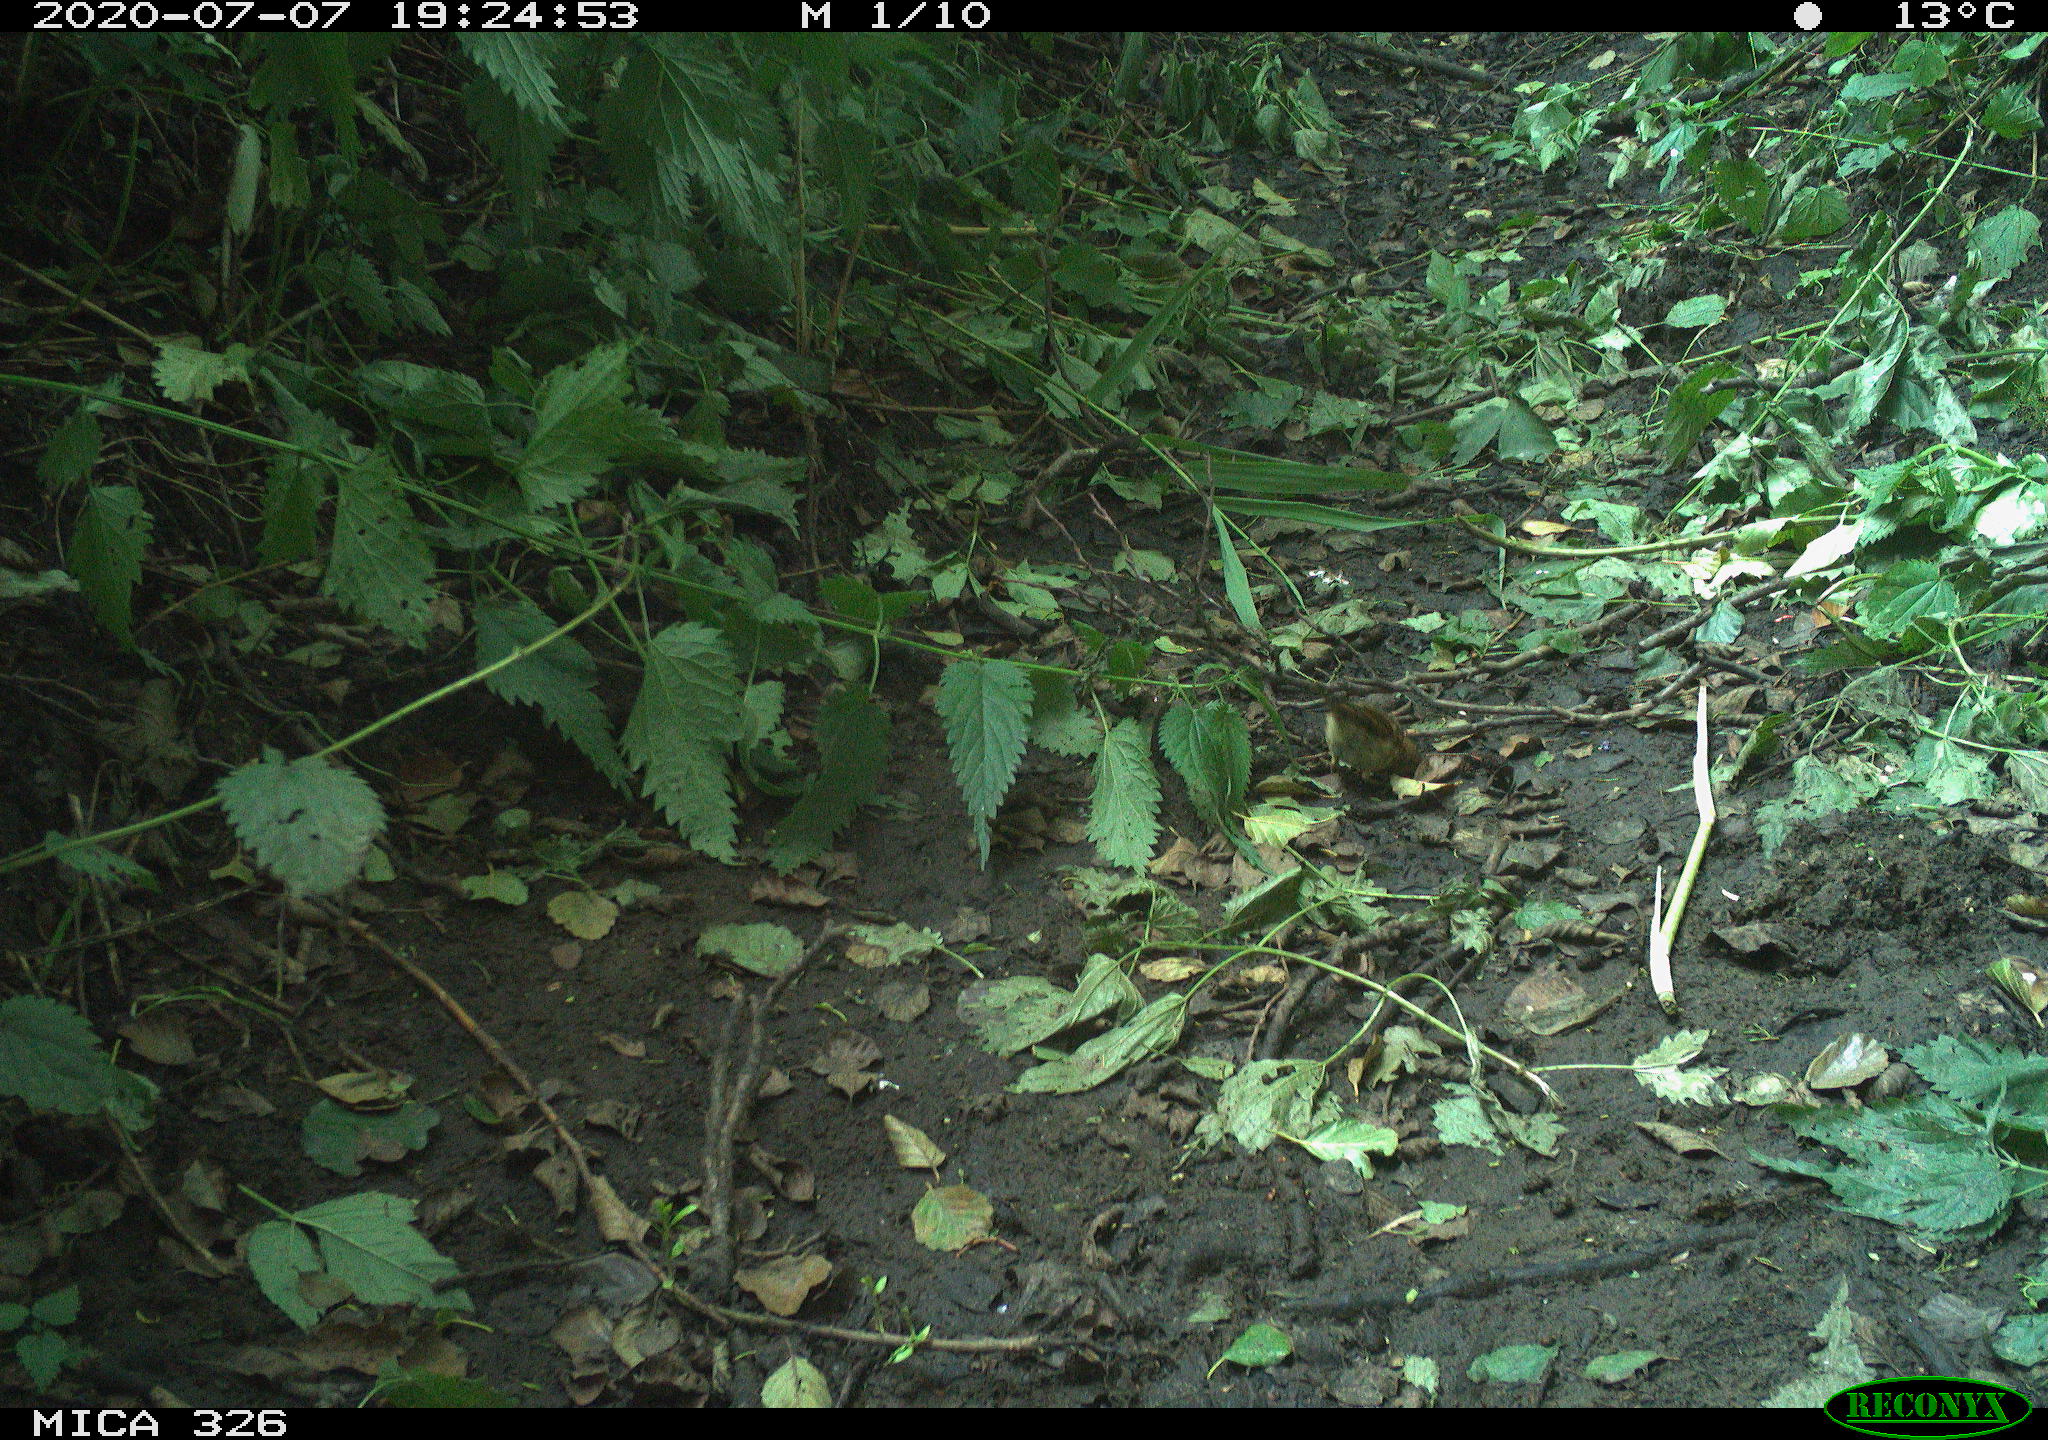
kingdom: Animalia
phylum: Chordata
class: Aves
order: Passeriformes
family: Muscicapidae
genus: Erithacus
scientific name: Erithacus rubecula
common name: European robin
